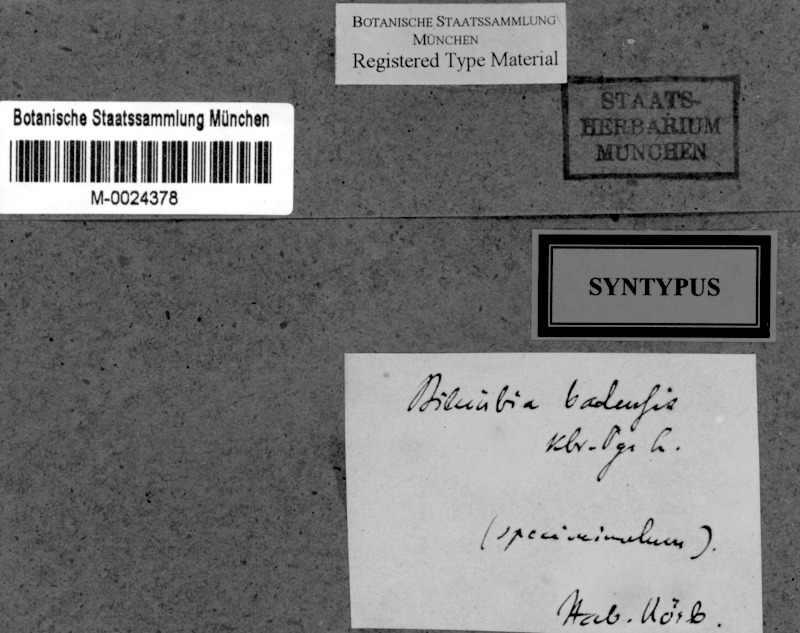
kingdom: Fungi
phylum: Ascomycota
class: Lecanoromycetes
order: Lecanorales
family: Ramalinaceae
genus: Bacidia
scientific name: Bacidia badensis
